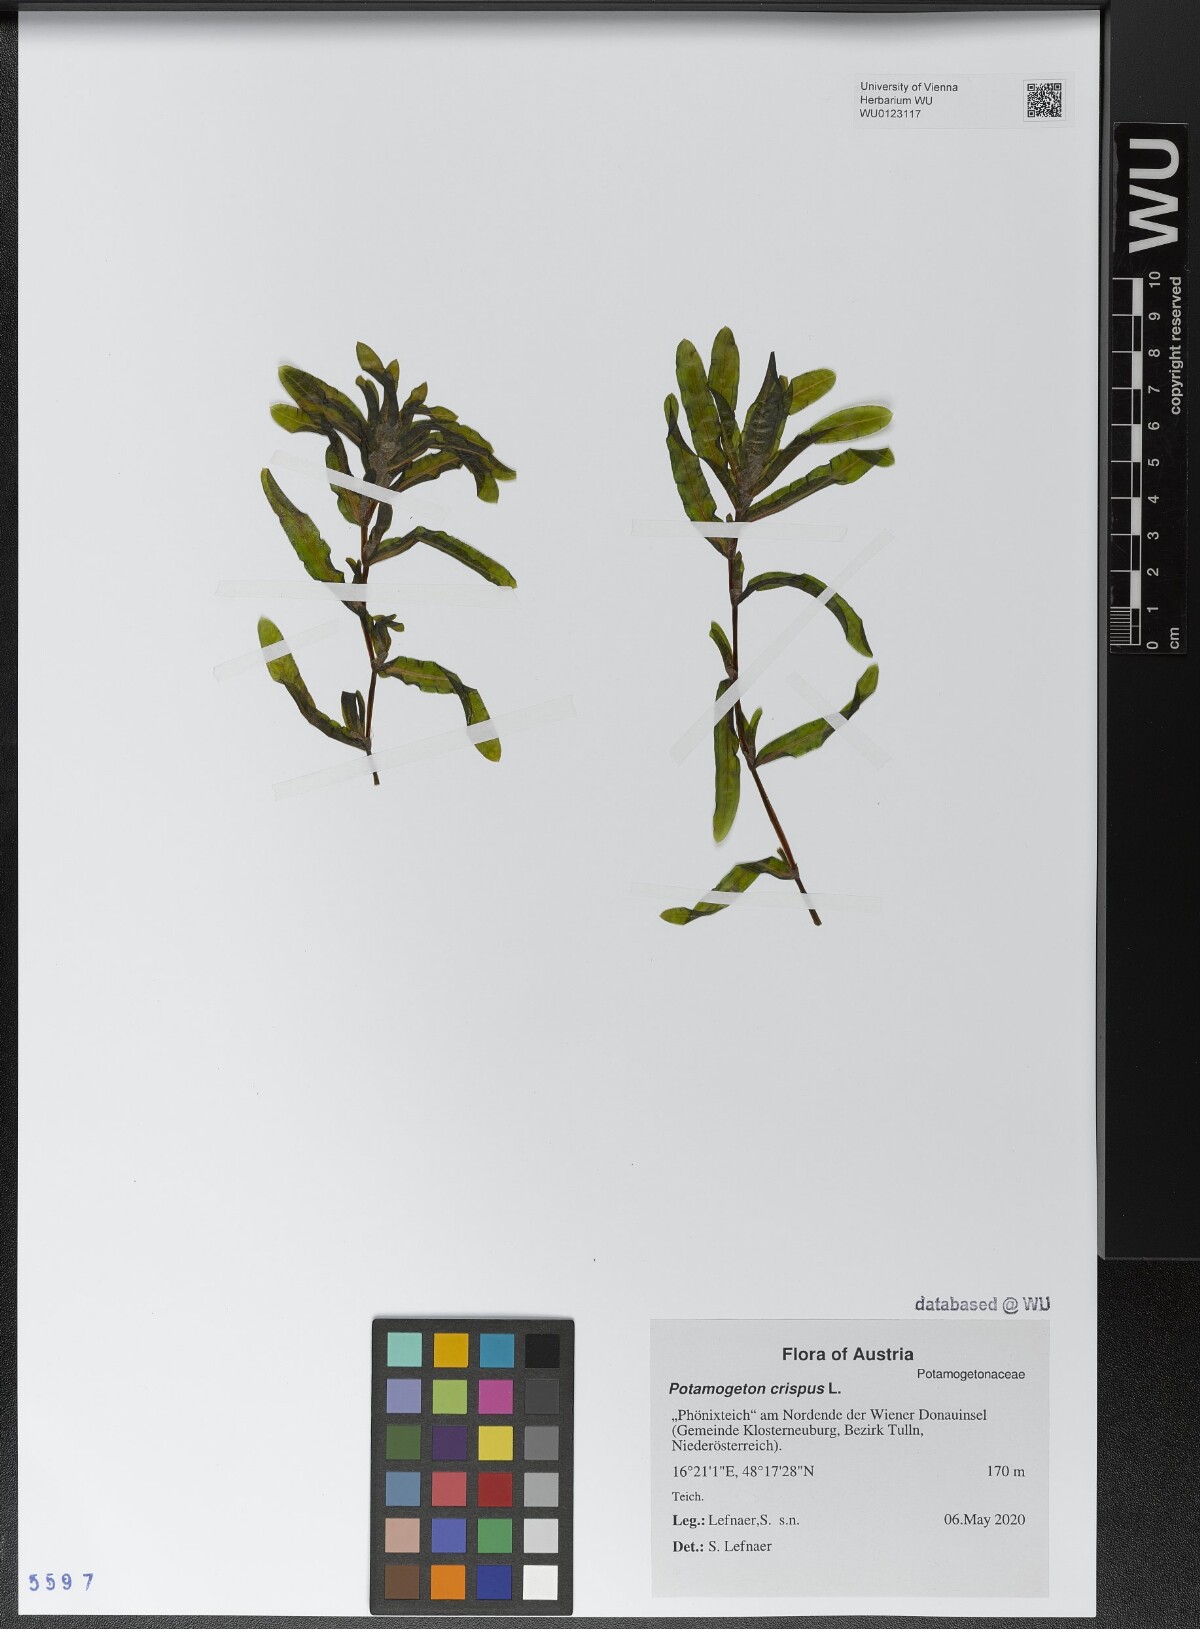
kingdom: Plantae
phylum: Tracheophyta
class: Liliopsida
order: Alismatales
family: Potamogetonaceae
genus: Potamogeton
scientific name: Potamogeton crispus
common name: Curled pondweed
